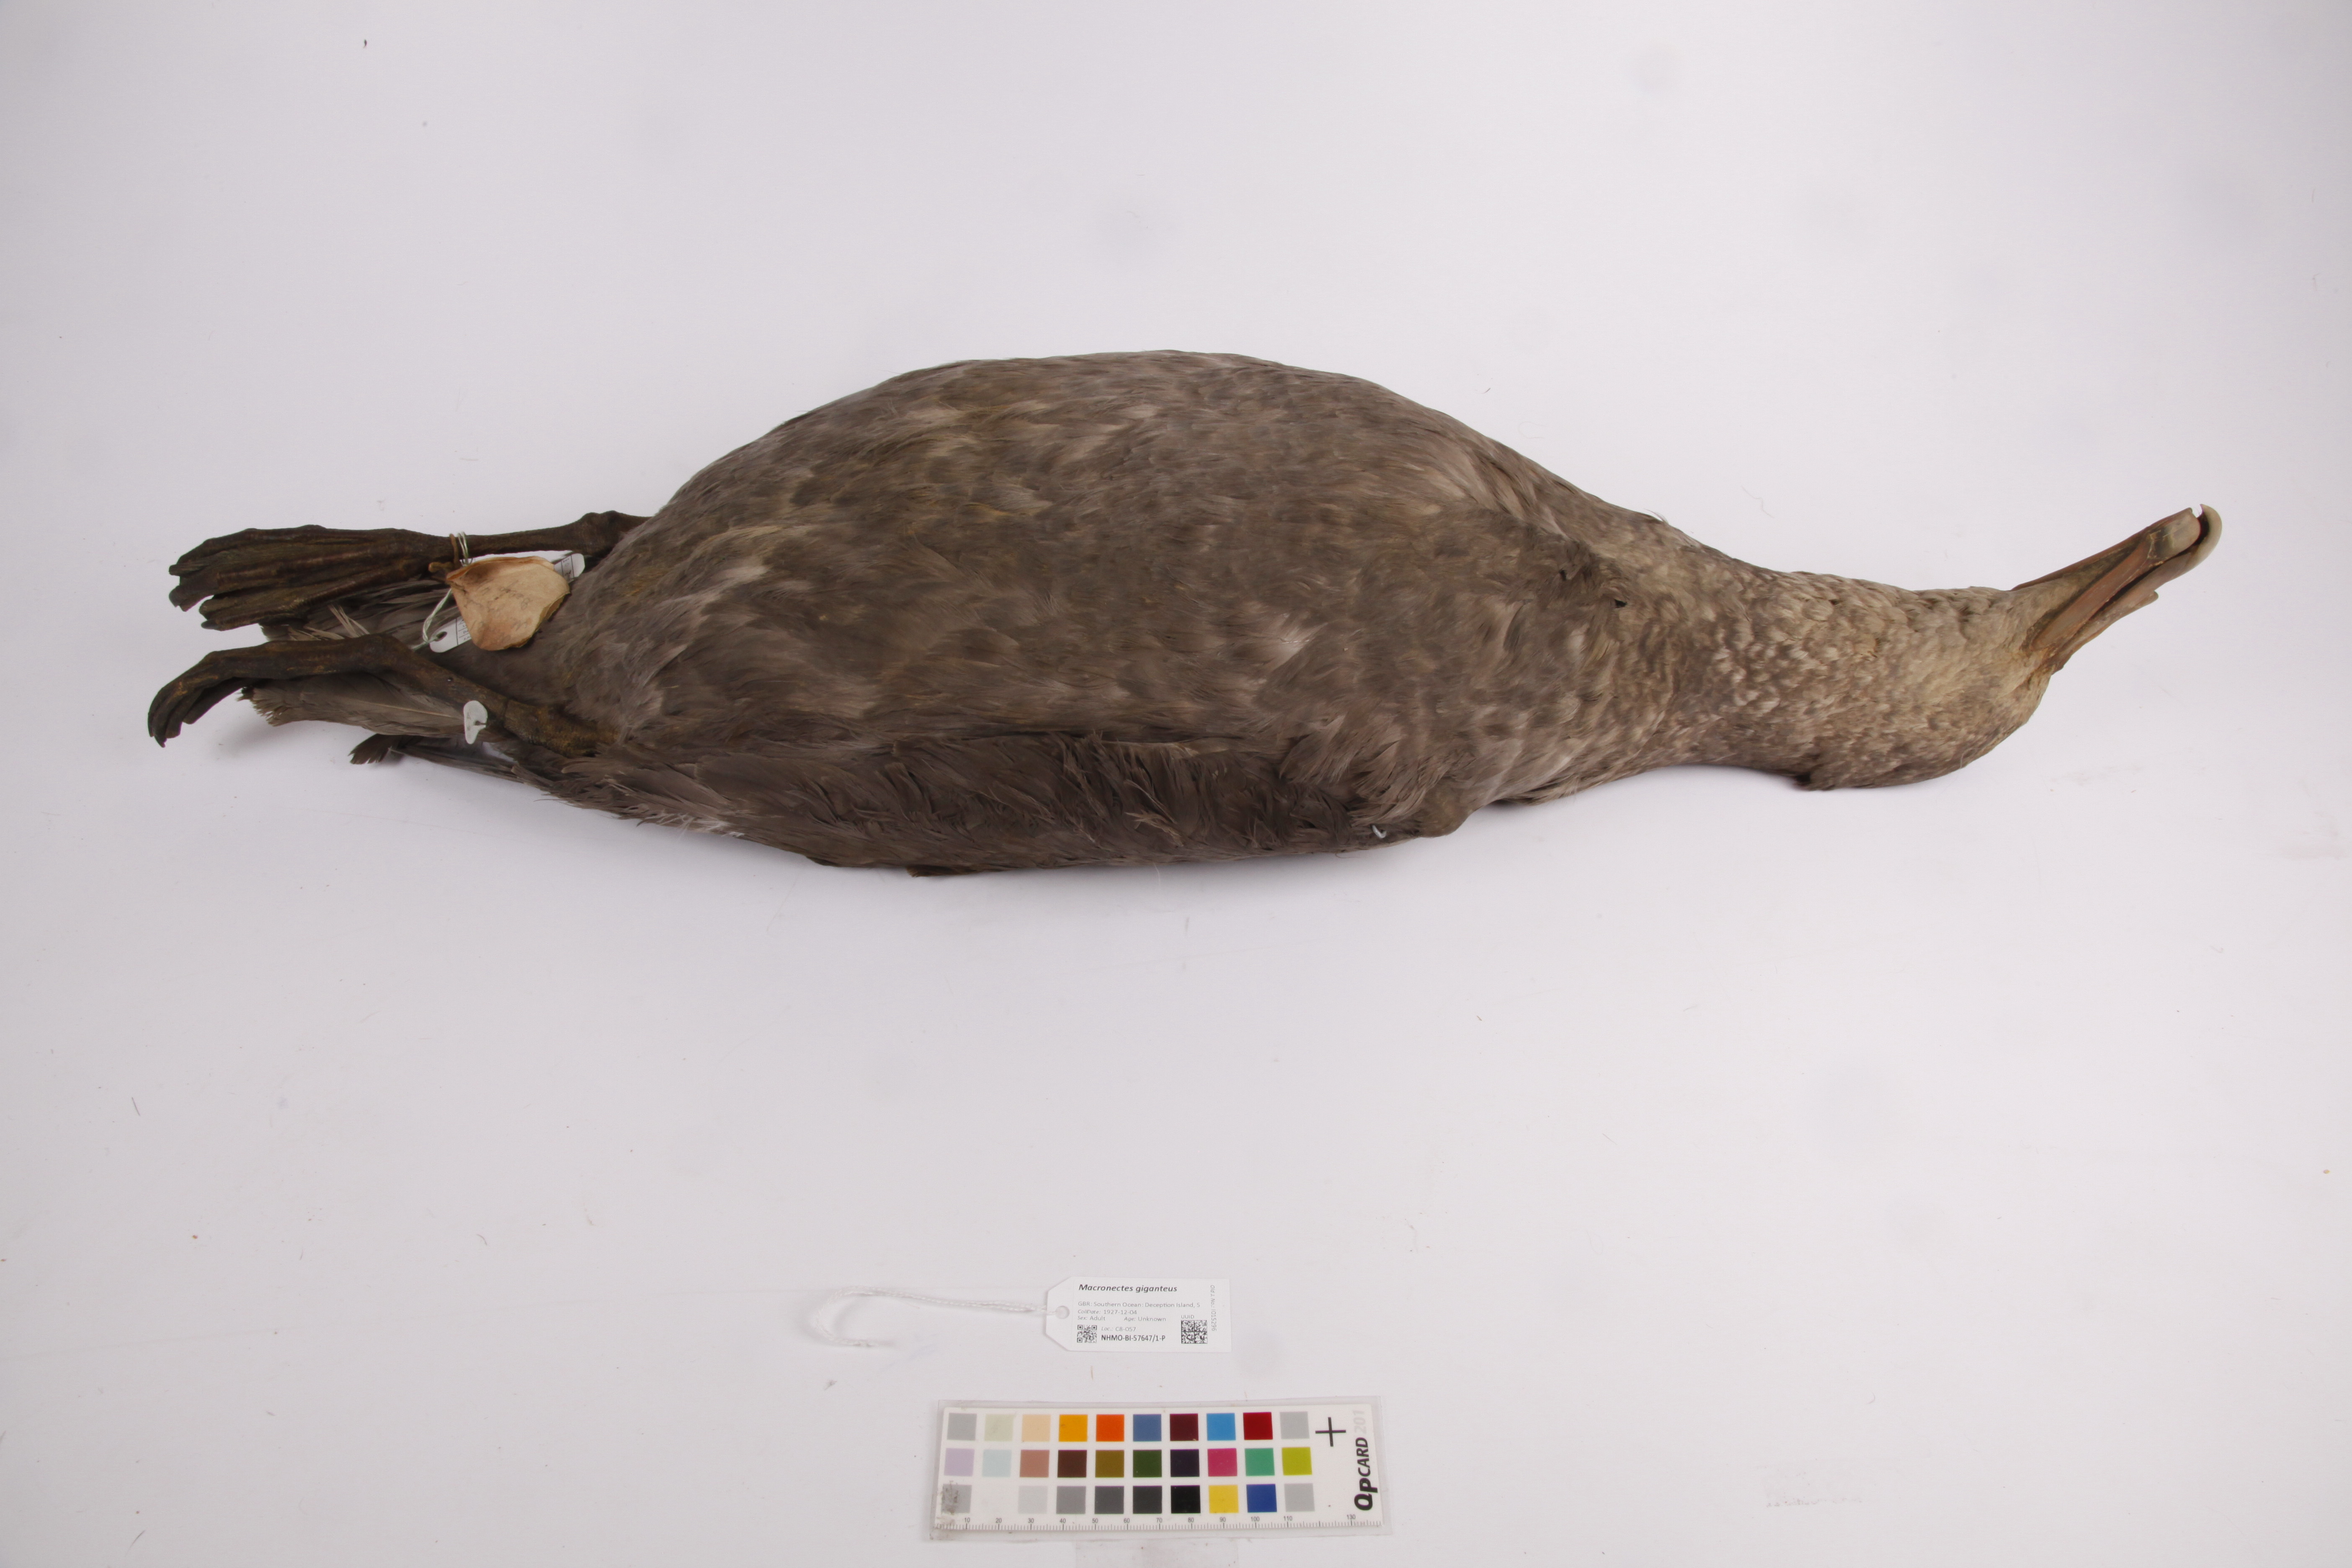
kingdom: Animalia
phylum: Chordata
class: Aves
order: Procellariiformes
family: Procellariidae
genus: Macronectes
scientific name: Macronectes giganteus
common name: Southern giant petrel
